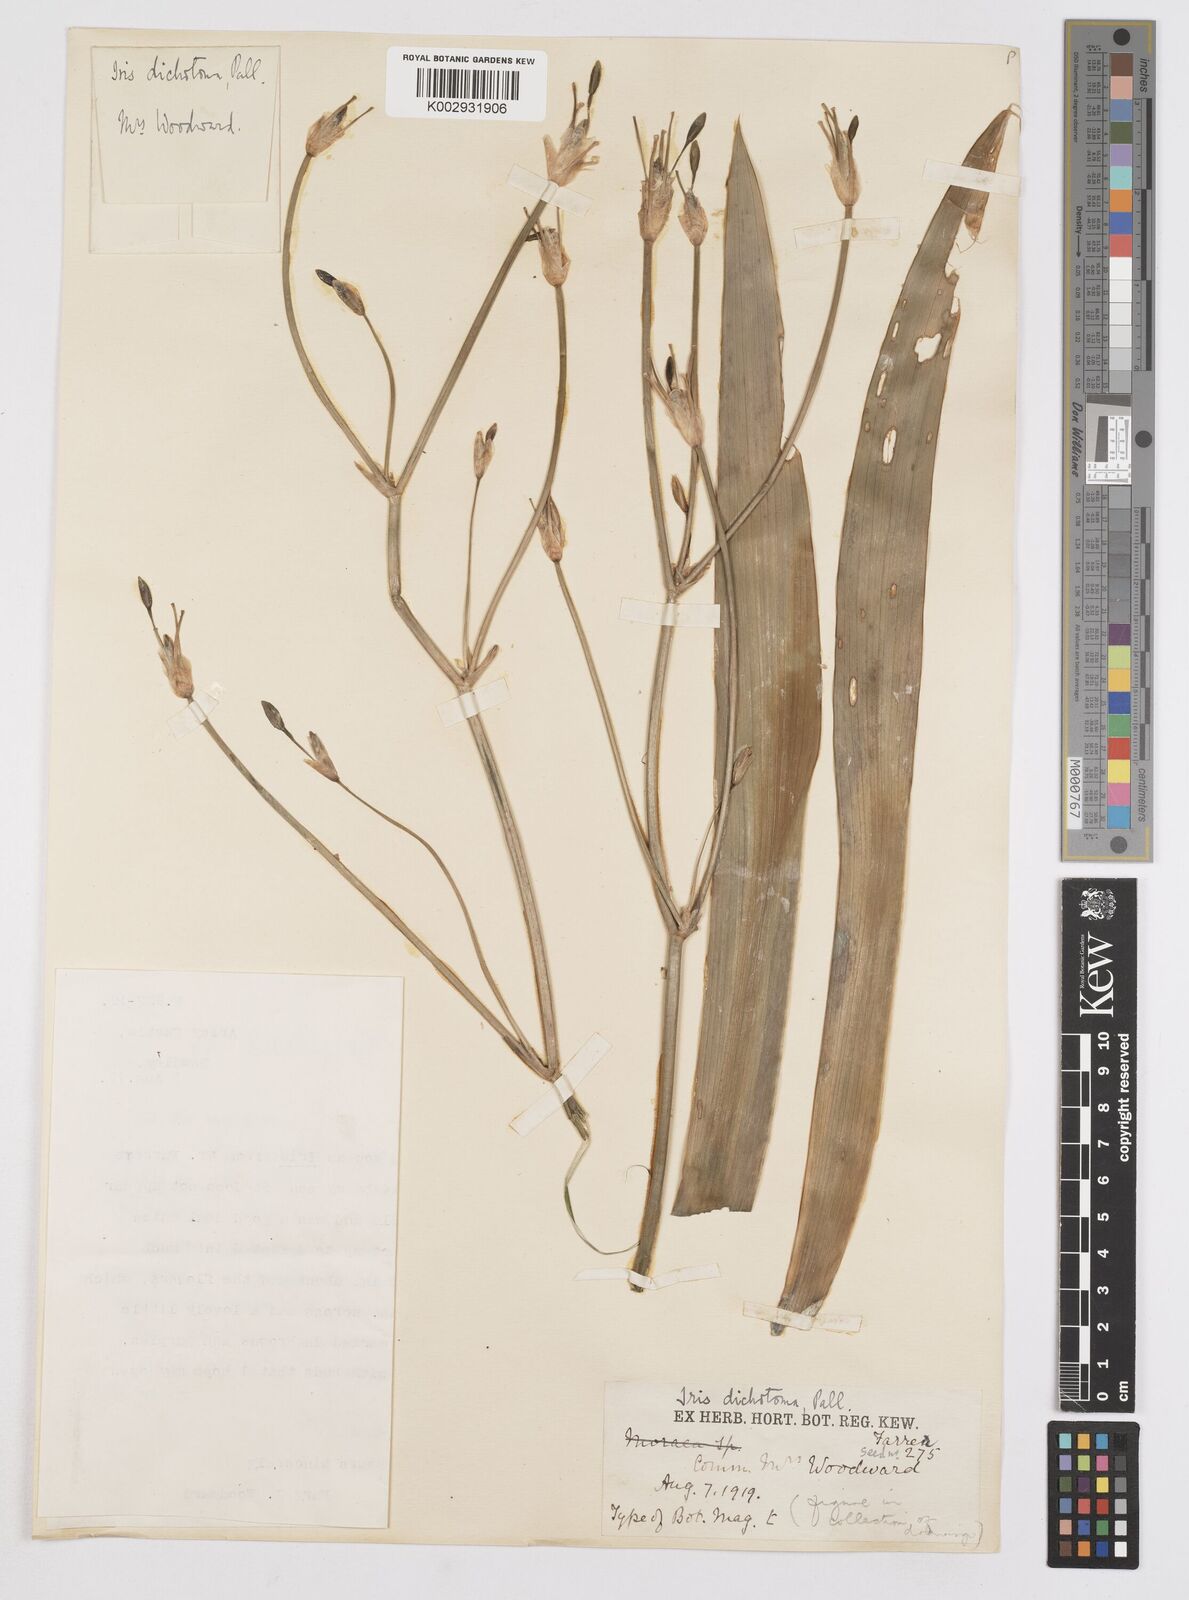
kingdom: Plantae
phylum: Tracheophyta
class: Liliopsida
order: Asparagales
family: Iridaceae
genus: Iris
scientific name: Iris dichotoma
